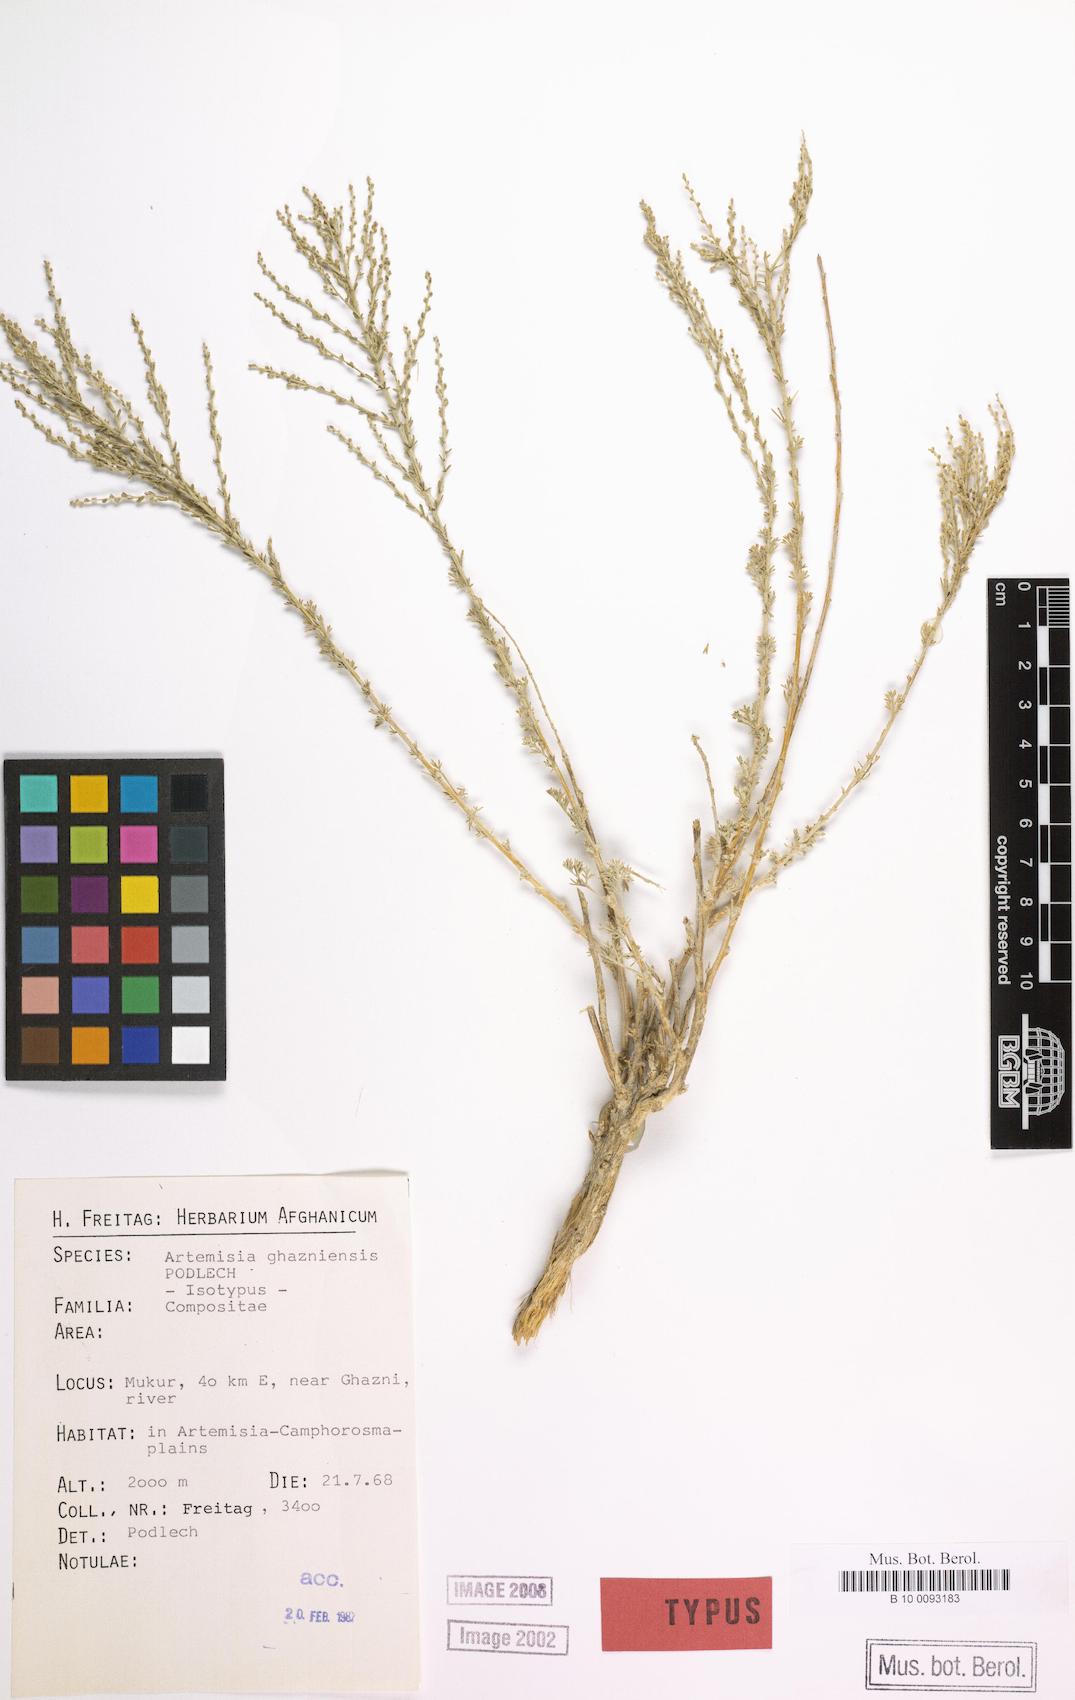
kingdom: Plantae
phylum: Tracheophyta
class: Magnoliopsida
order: Asterales
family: Asteraceae
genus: Artemisia
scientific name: Artemisia ghazniensis
